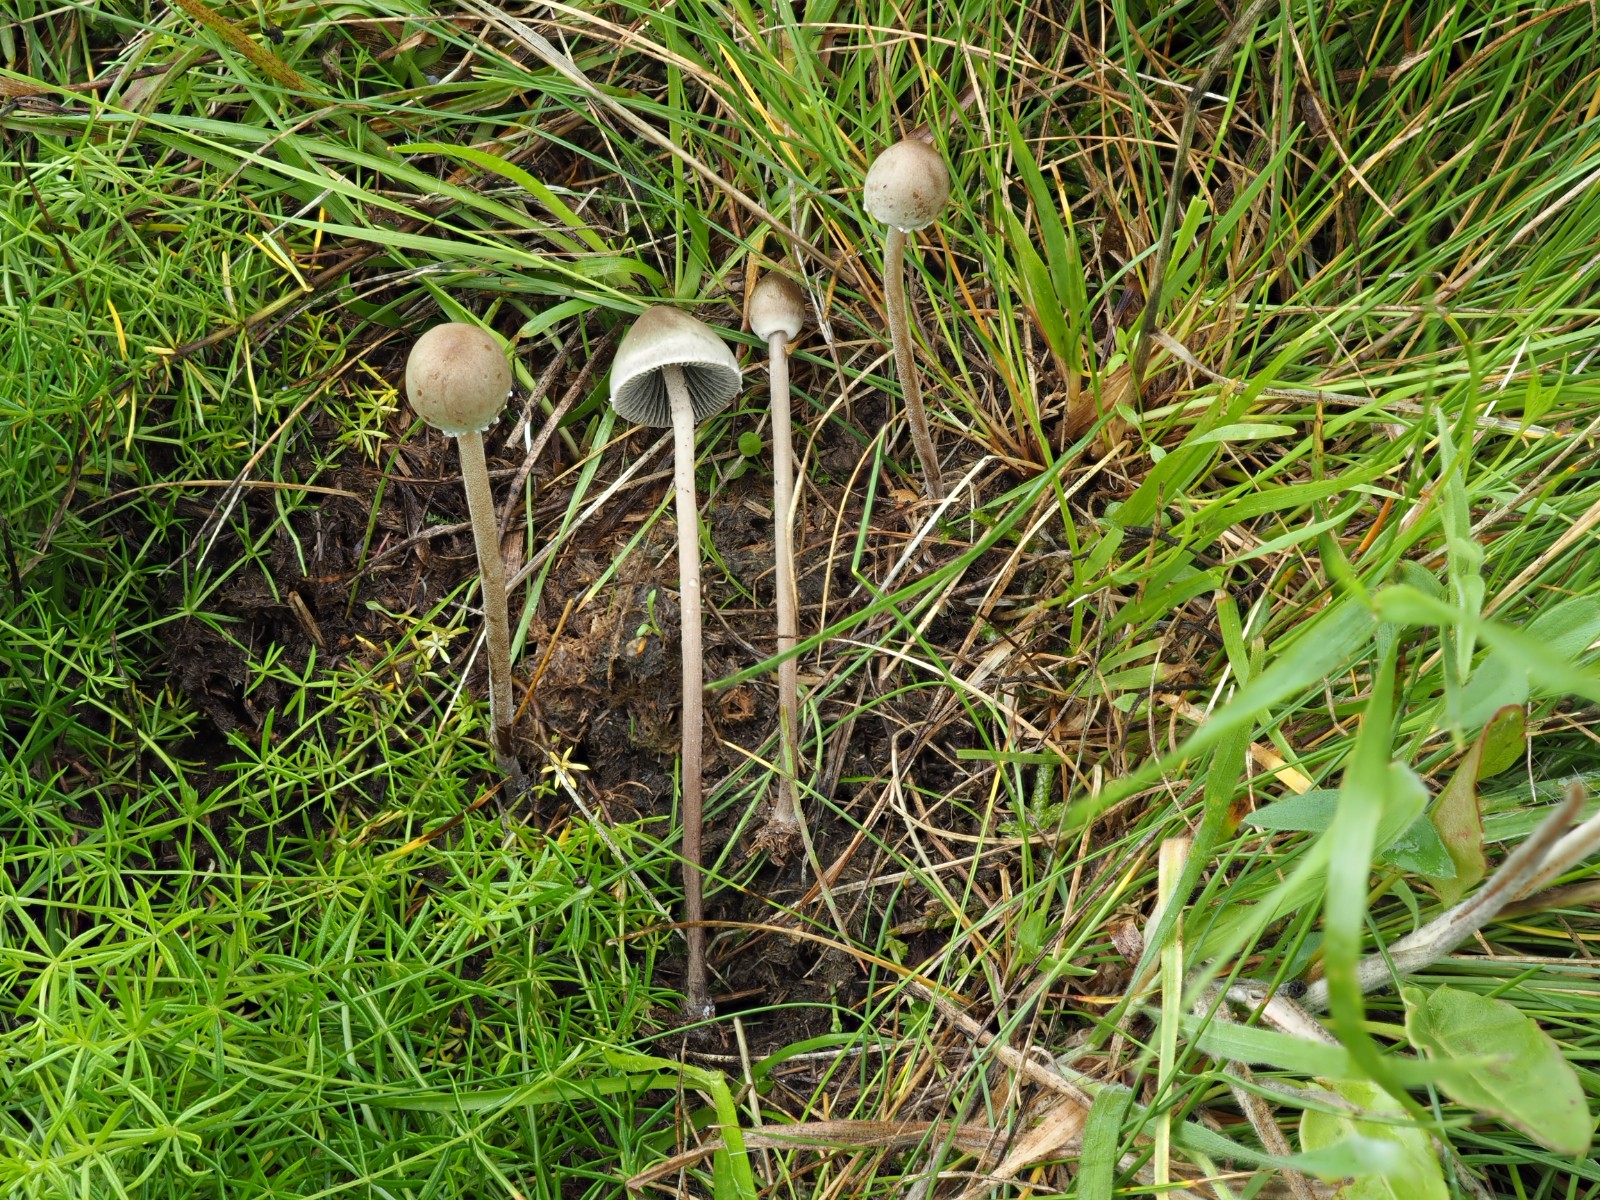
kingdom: Fungi
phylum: Basidiomycota
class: Agaricomycetes
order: Agaricales
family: Bolbitiaceae
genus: Panaeolus
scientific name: Panaeolus papilionaceus
